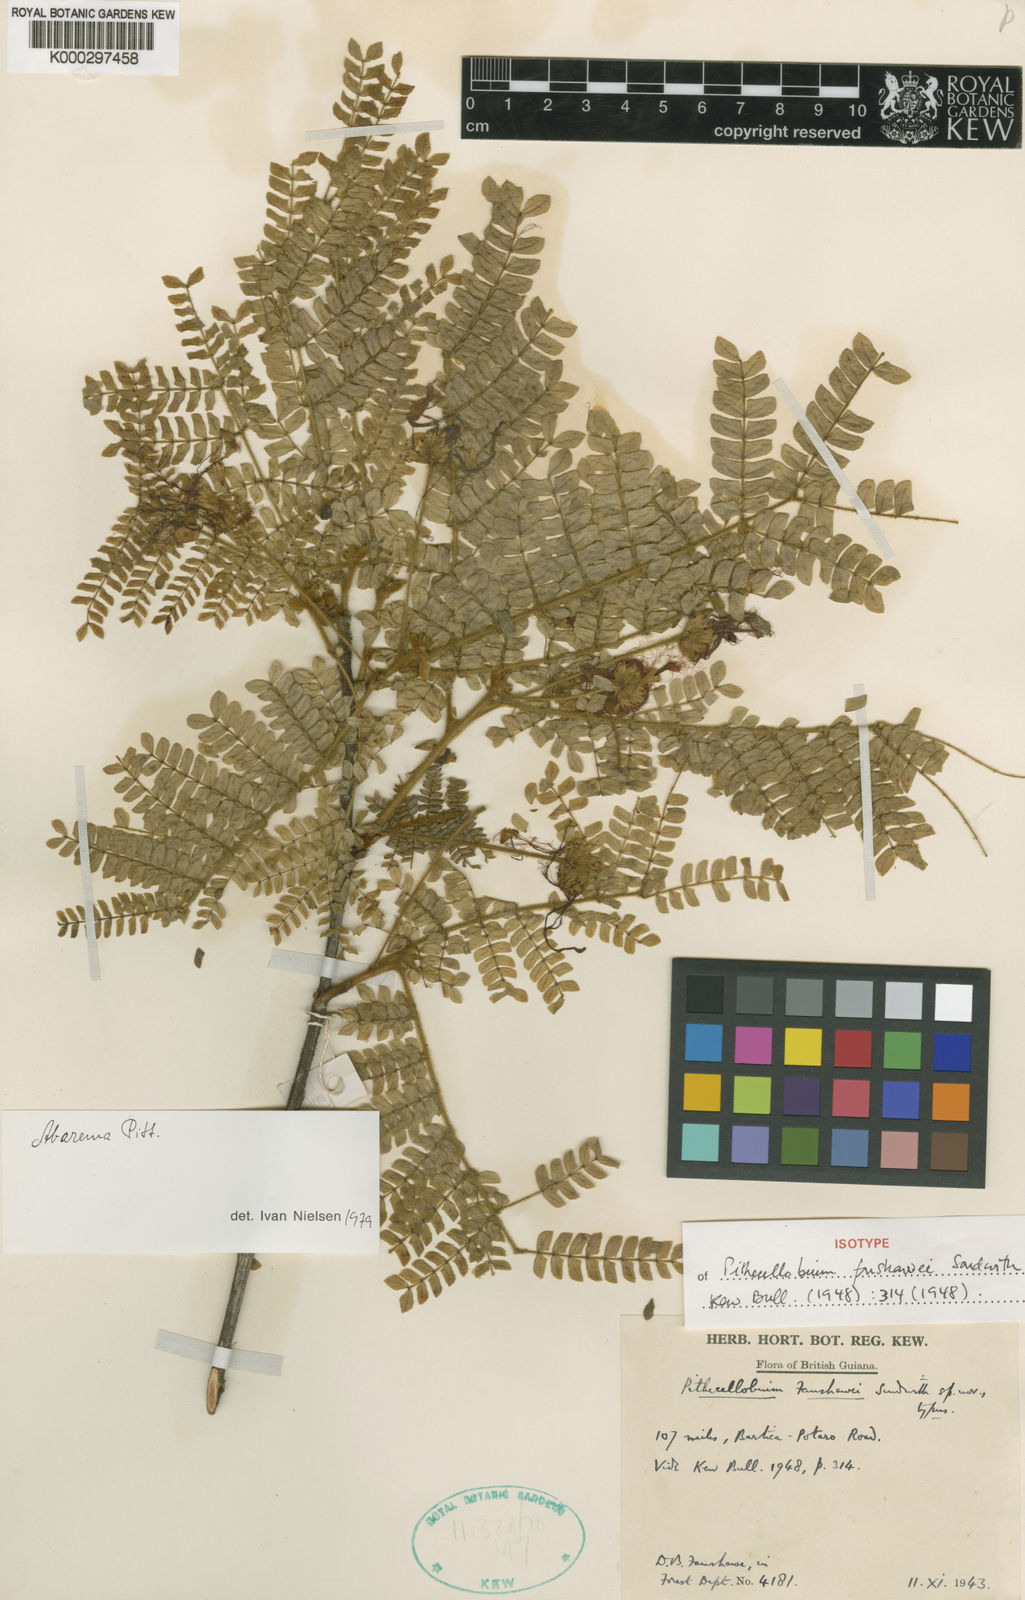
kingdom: Plantae
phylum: Tracheophyta
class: Magnoliopsida
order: Fabales
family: Fabaceae
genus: Jupunba
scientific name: Jupunba barbouriana
